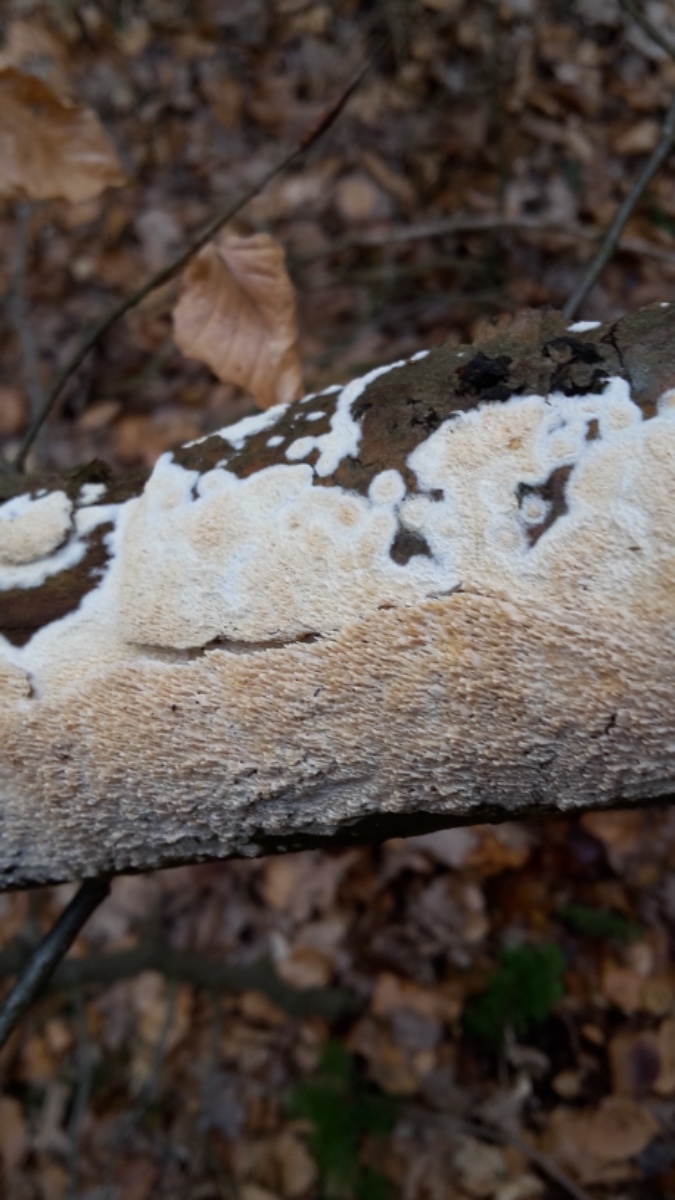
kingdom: Fungi
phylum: Basidiomycota
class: Agaricomycetes
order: Hymenochaetales
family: Schizoporaceae
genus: Schizopora
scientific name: Schizopora paradoxa
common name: hvid tandsvamp
